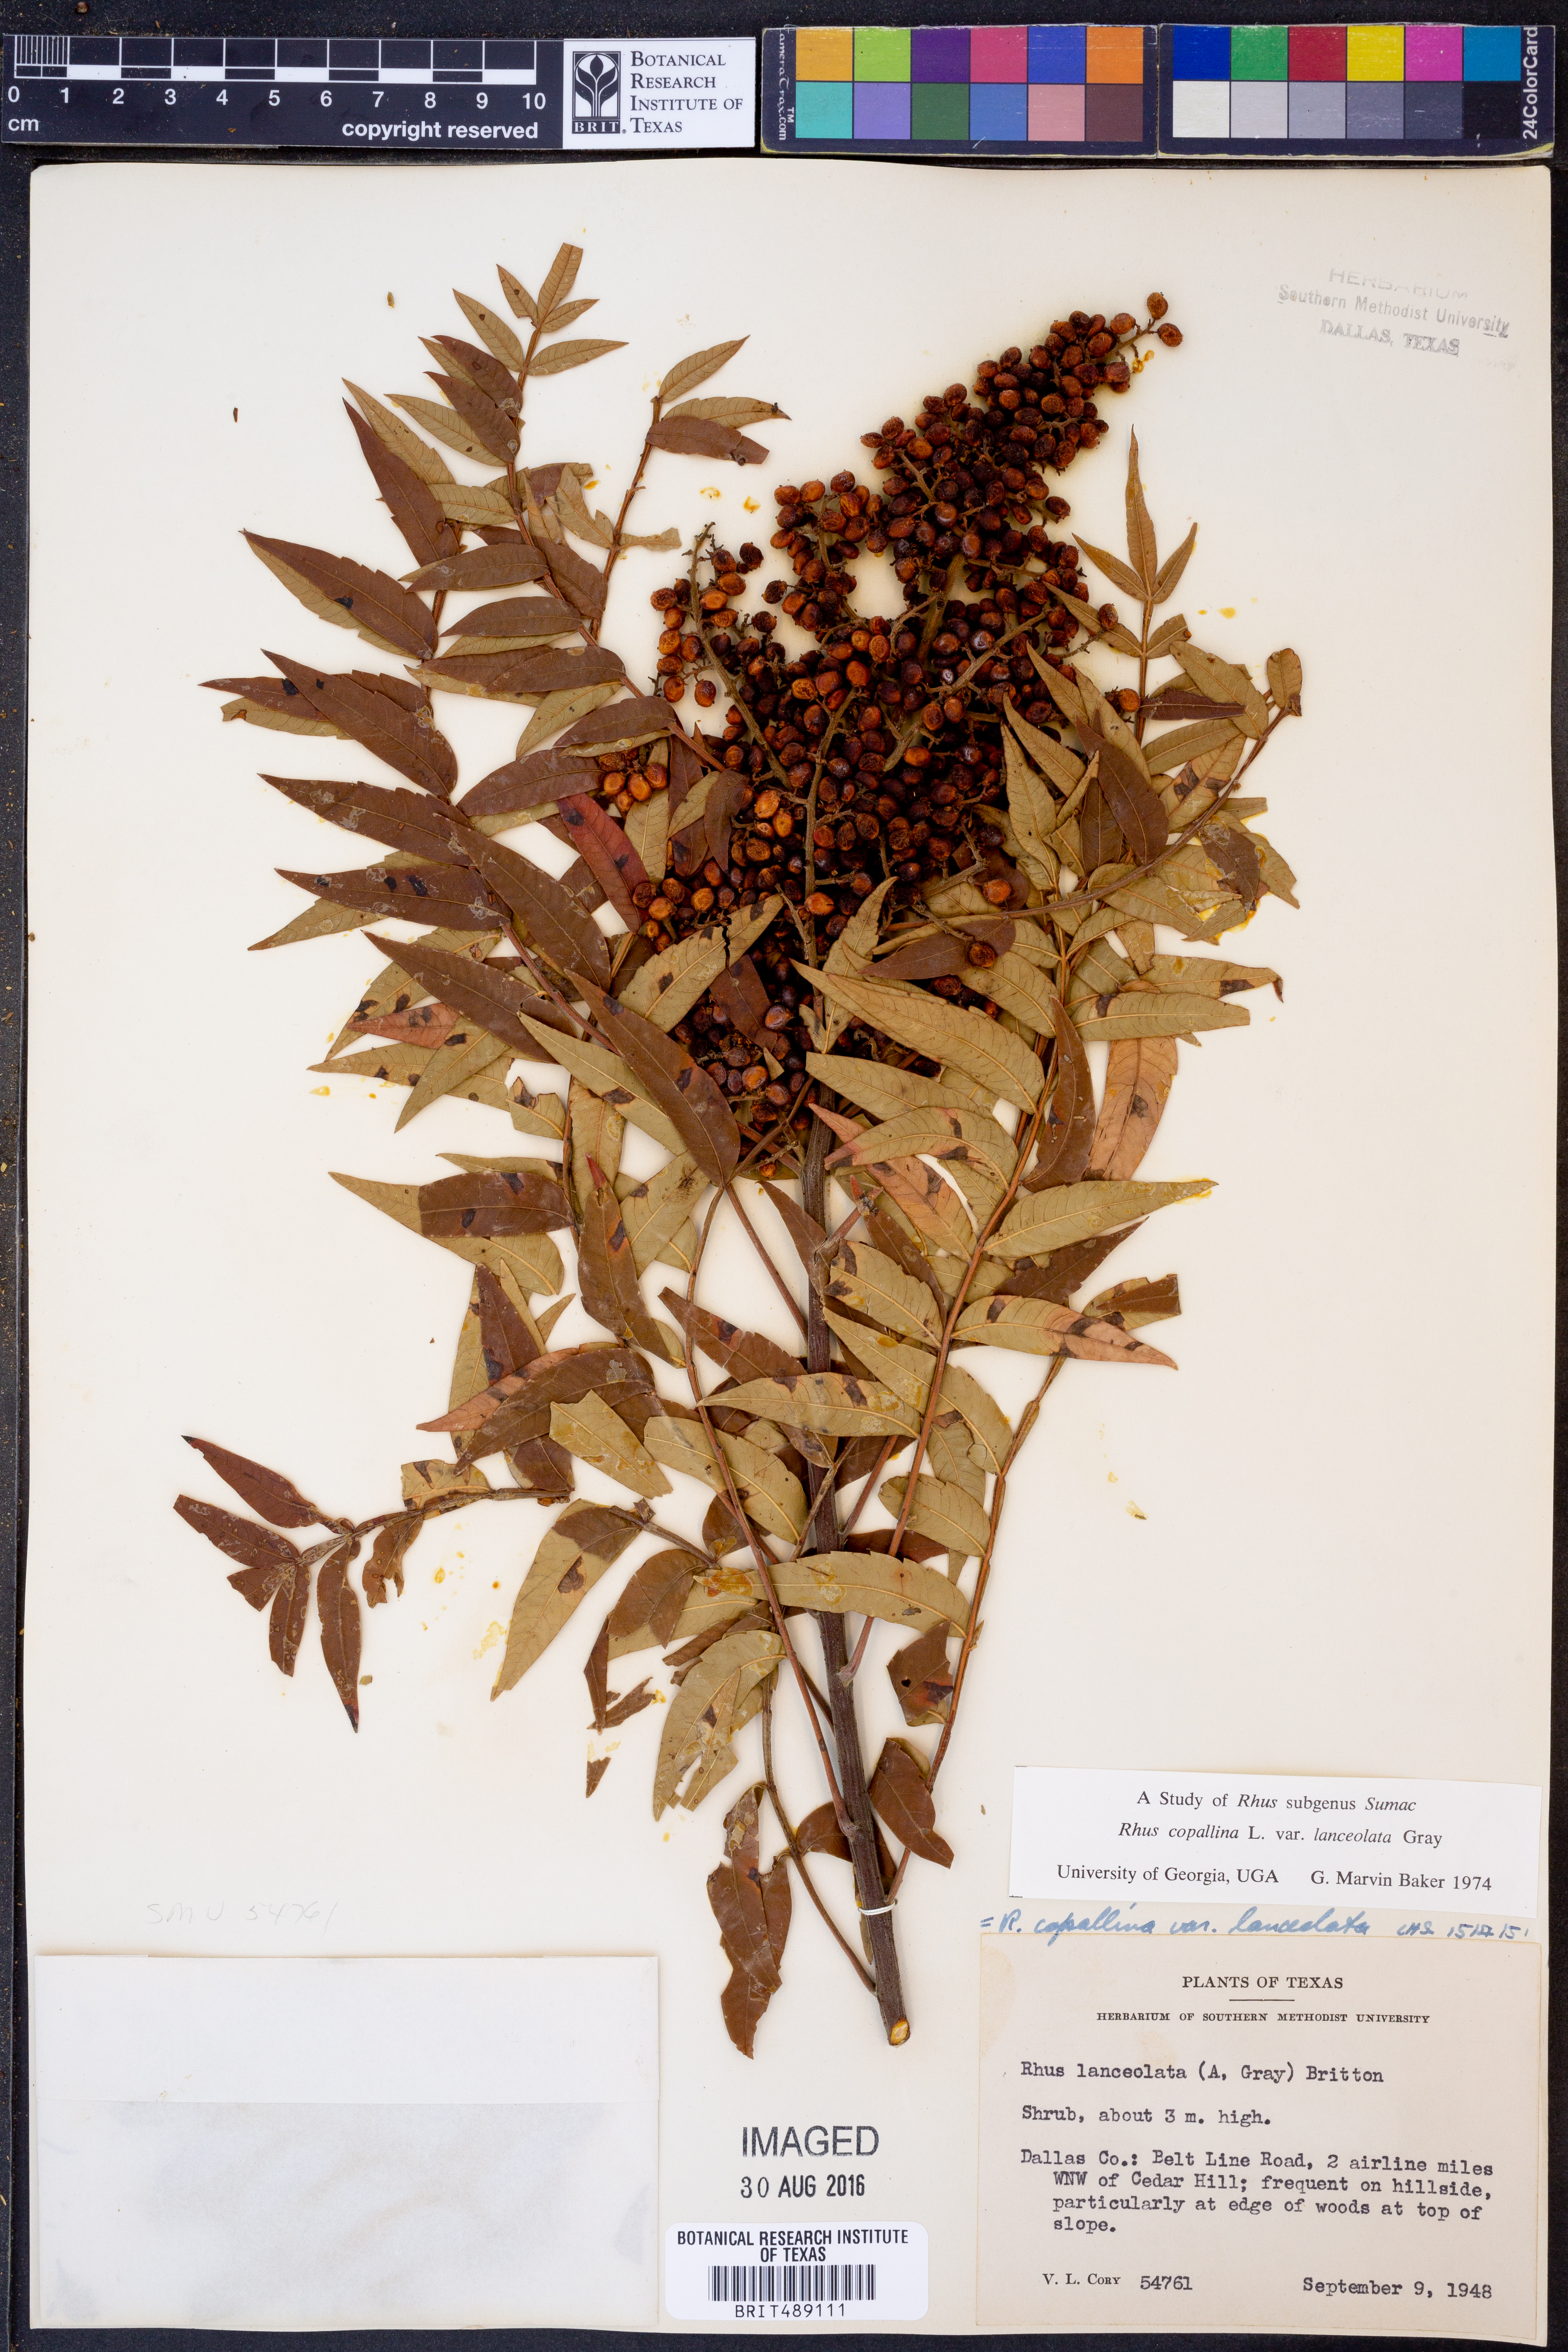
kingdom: Plantae
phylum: Tracheophyta
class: Magnoliopsida
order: Sapindales
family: Anacardiaceae
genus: Rhus
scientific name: Rhus lanceolata
